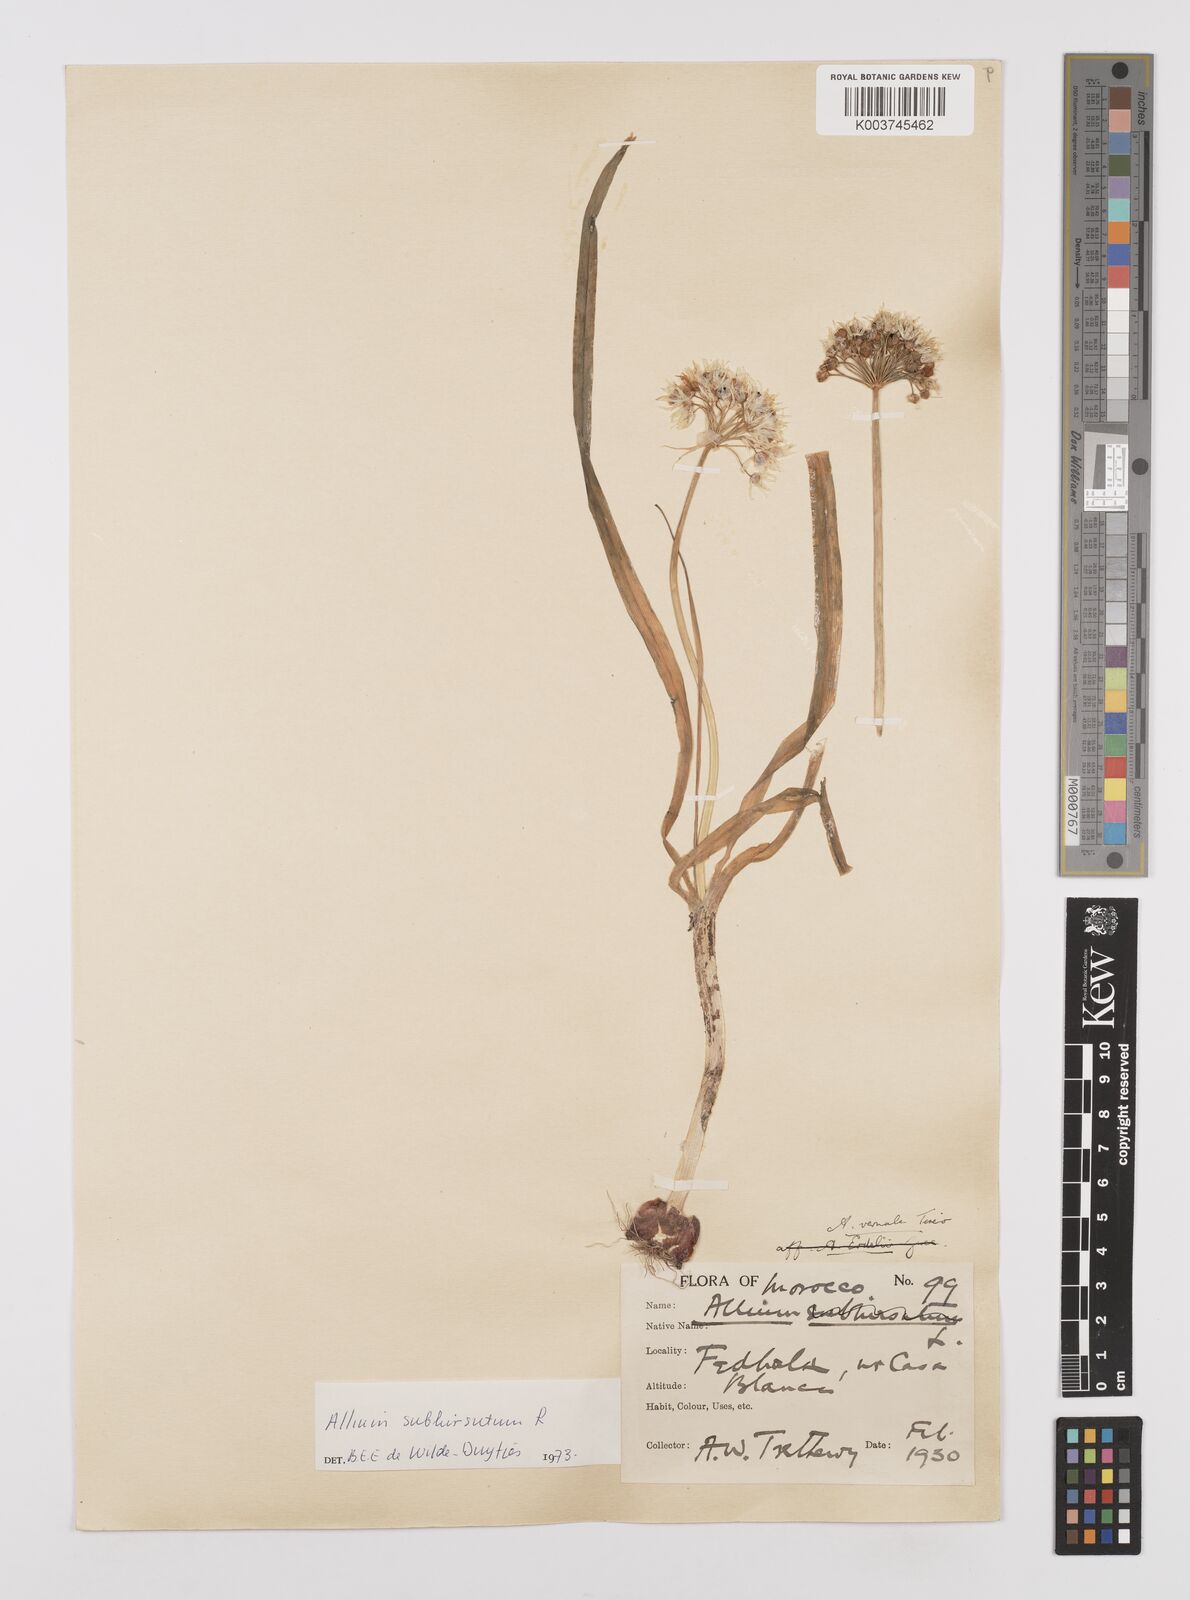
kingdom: Plantae
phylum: Tracheophyta
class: Liliopsida
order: Asparagales
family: Amaryllidaceae
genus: Allium
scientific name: Allium subhirsutum
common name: Hairy garlic
